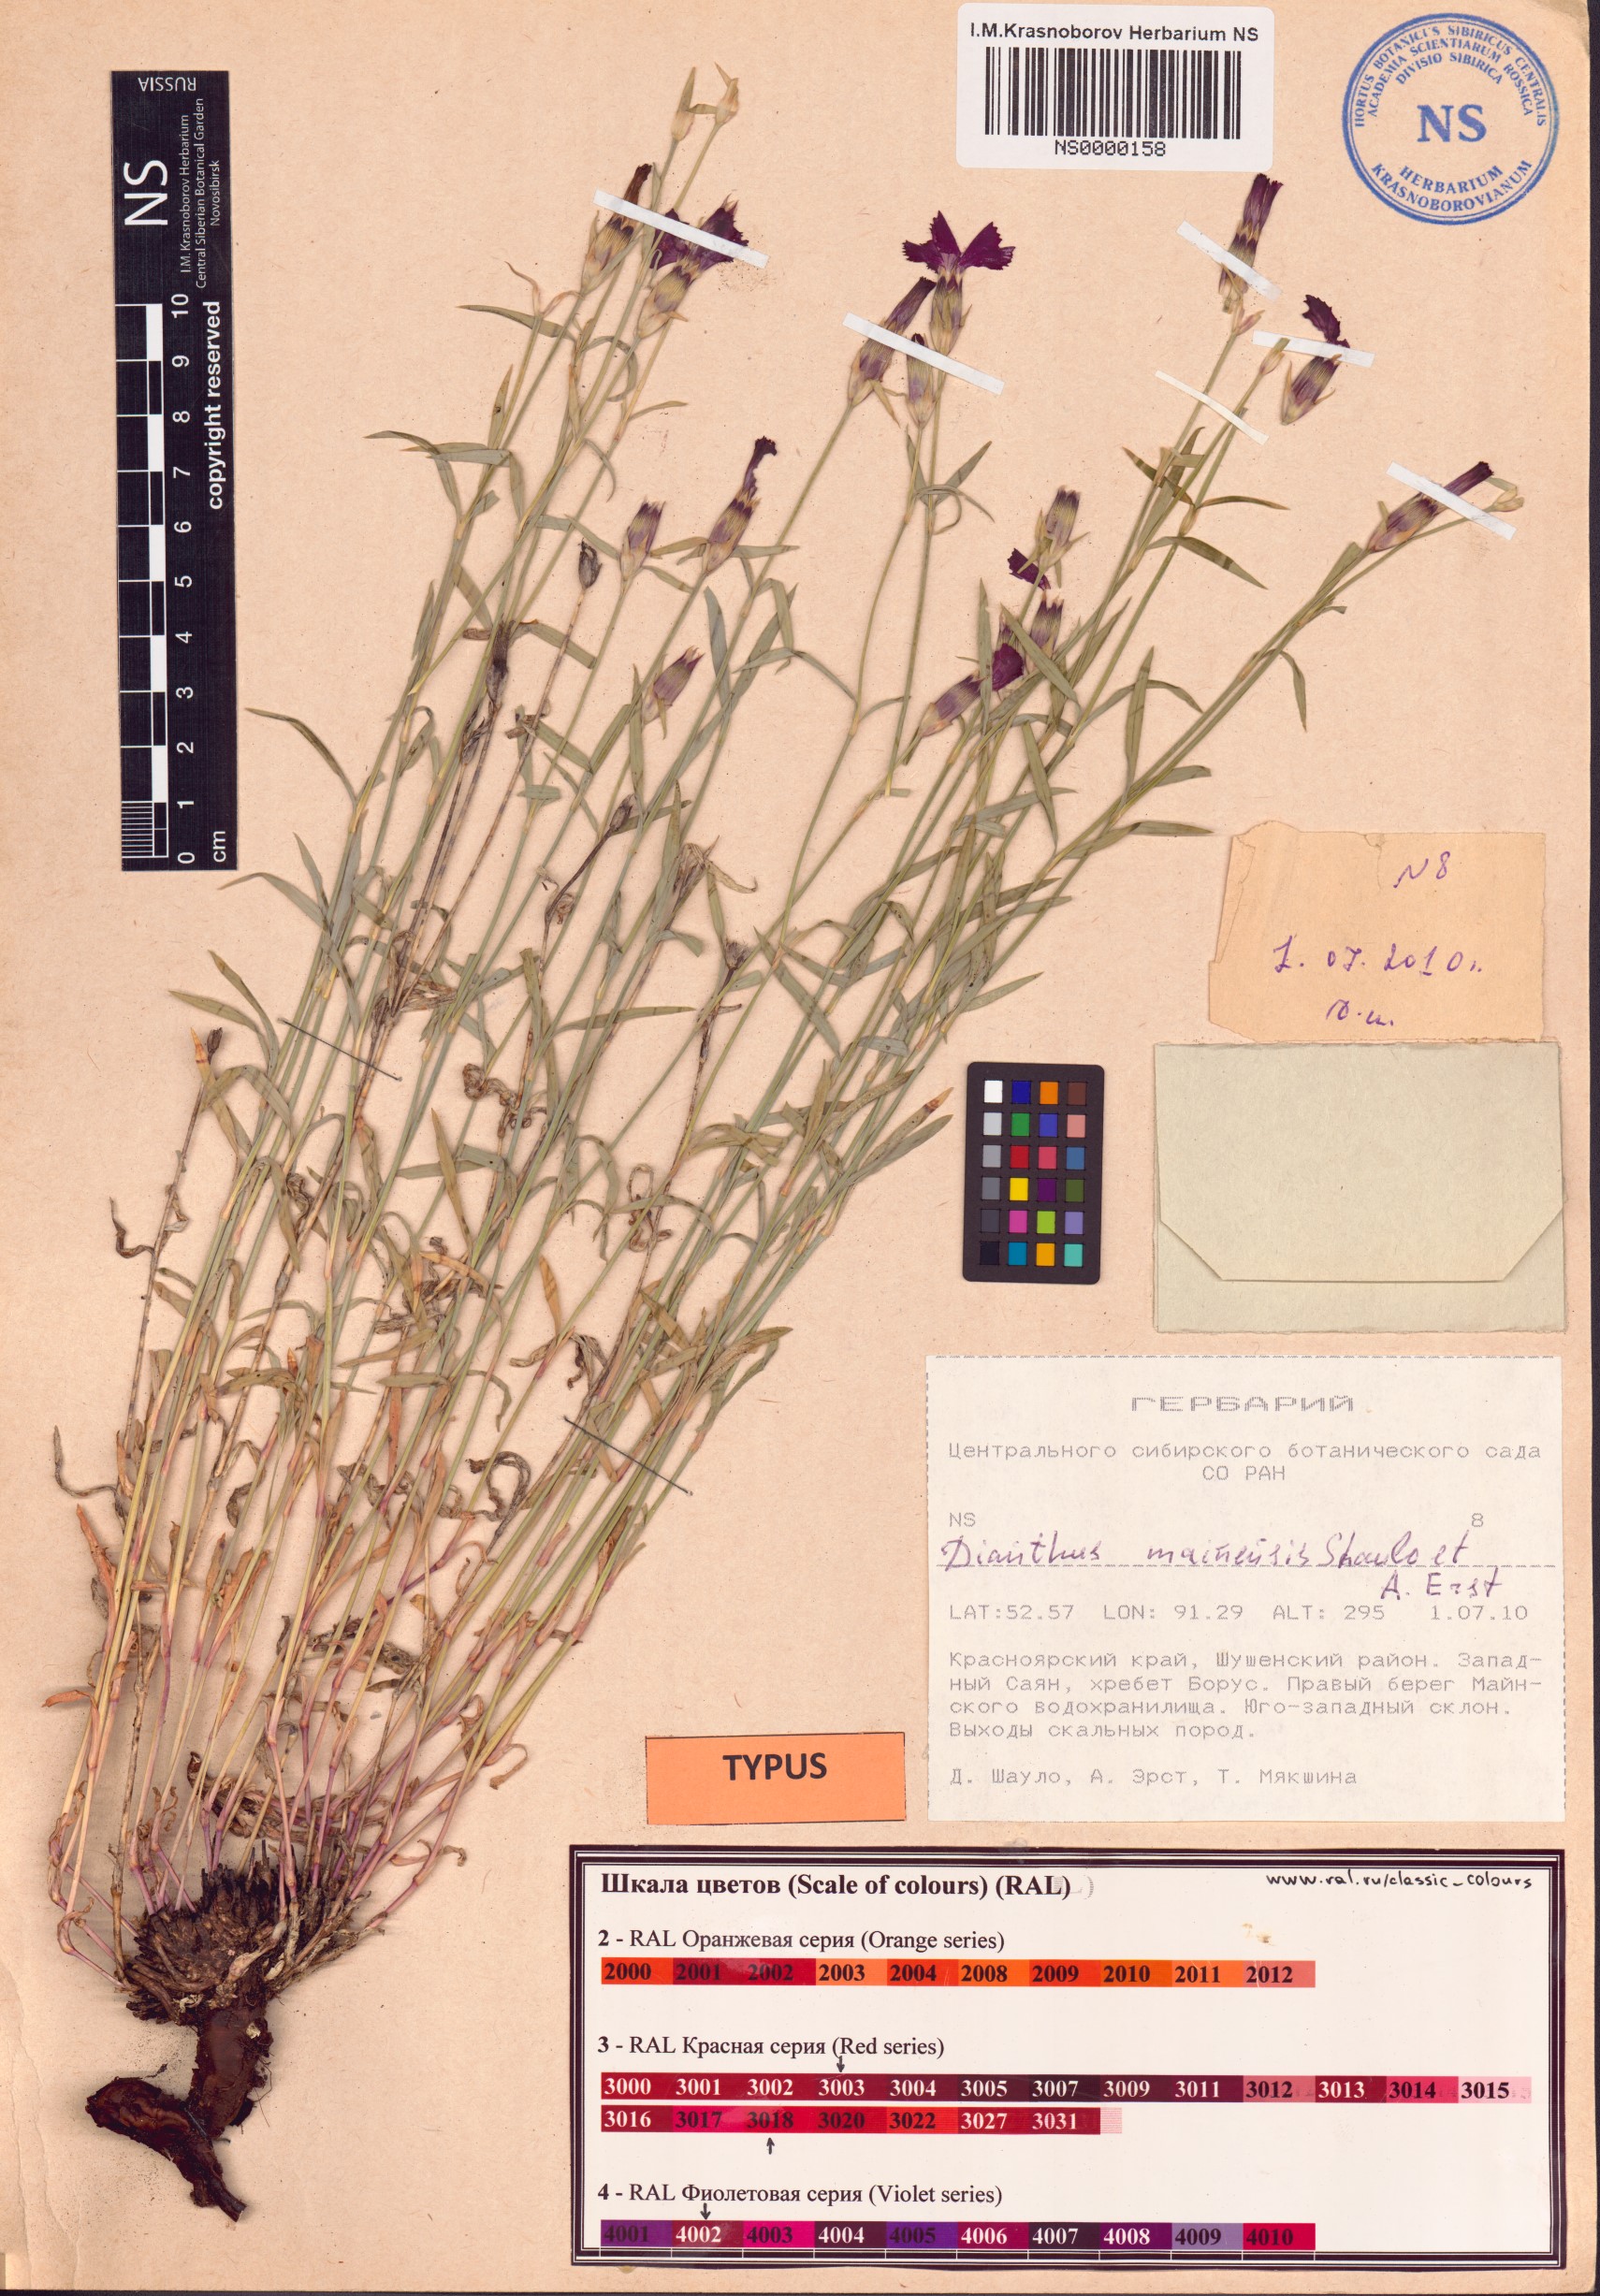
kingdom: Plantae
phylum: Tracheophyta
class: Magnoliopsida
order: Caryophyllales
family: Caryophyllaceae
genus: Dianthus
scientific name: Dianthus mainensis
